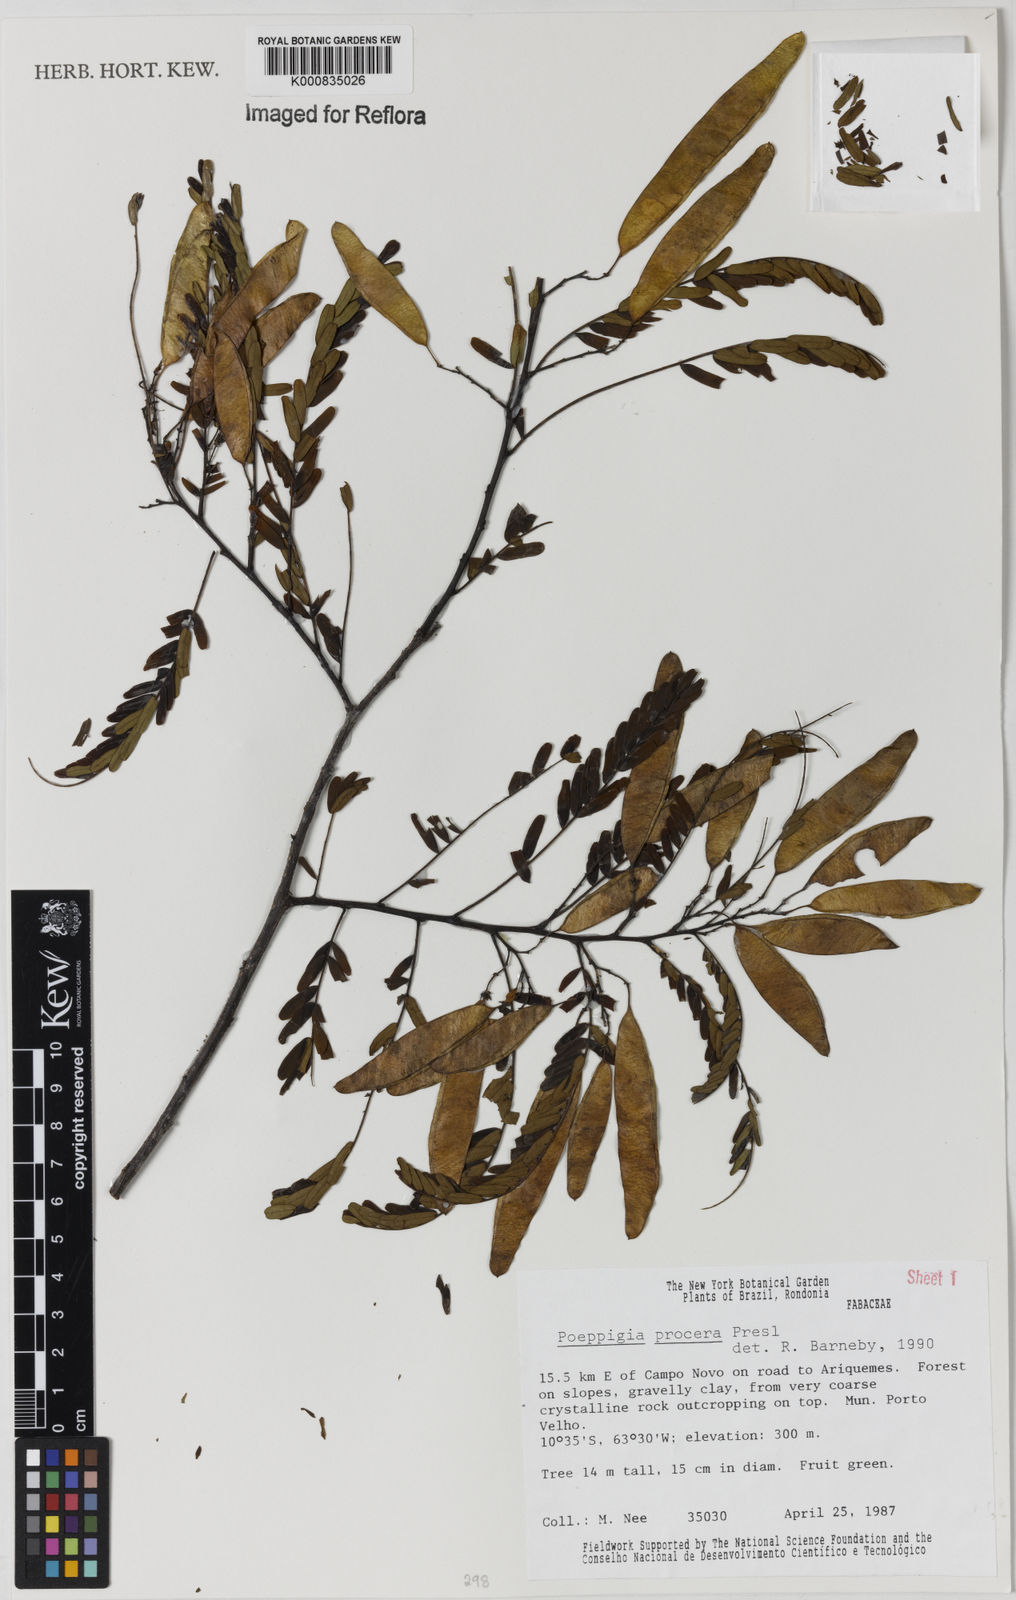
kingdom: Plantae
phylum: Tracheophyta
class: Magnoliopsida
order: Fabales
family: Fabaceae
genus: Poeppigia
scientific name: Poeppigia procera
